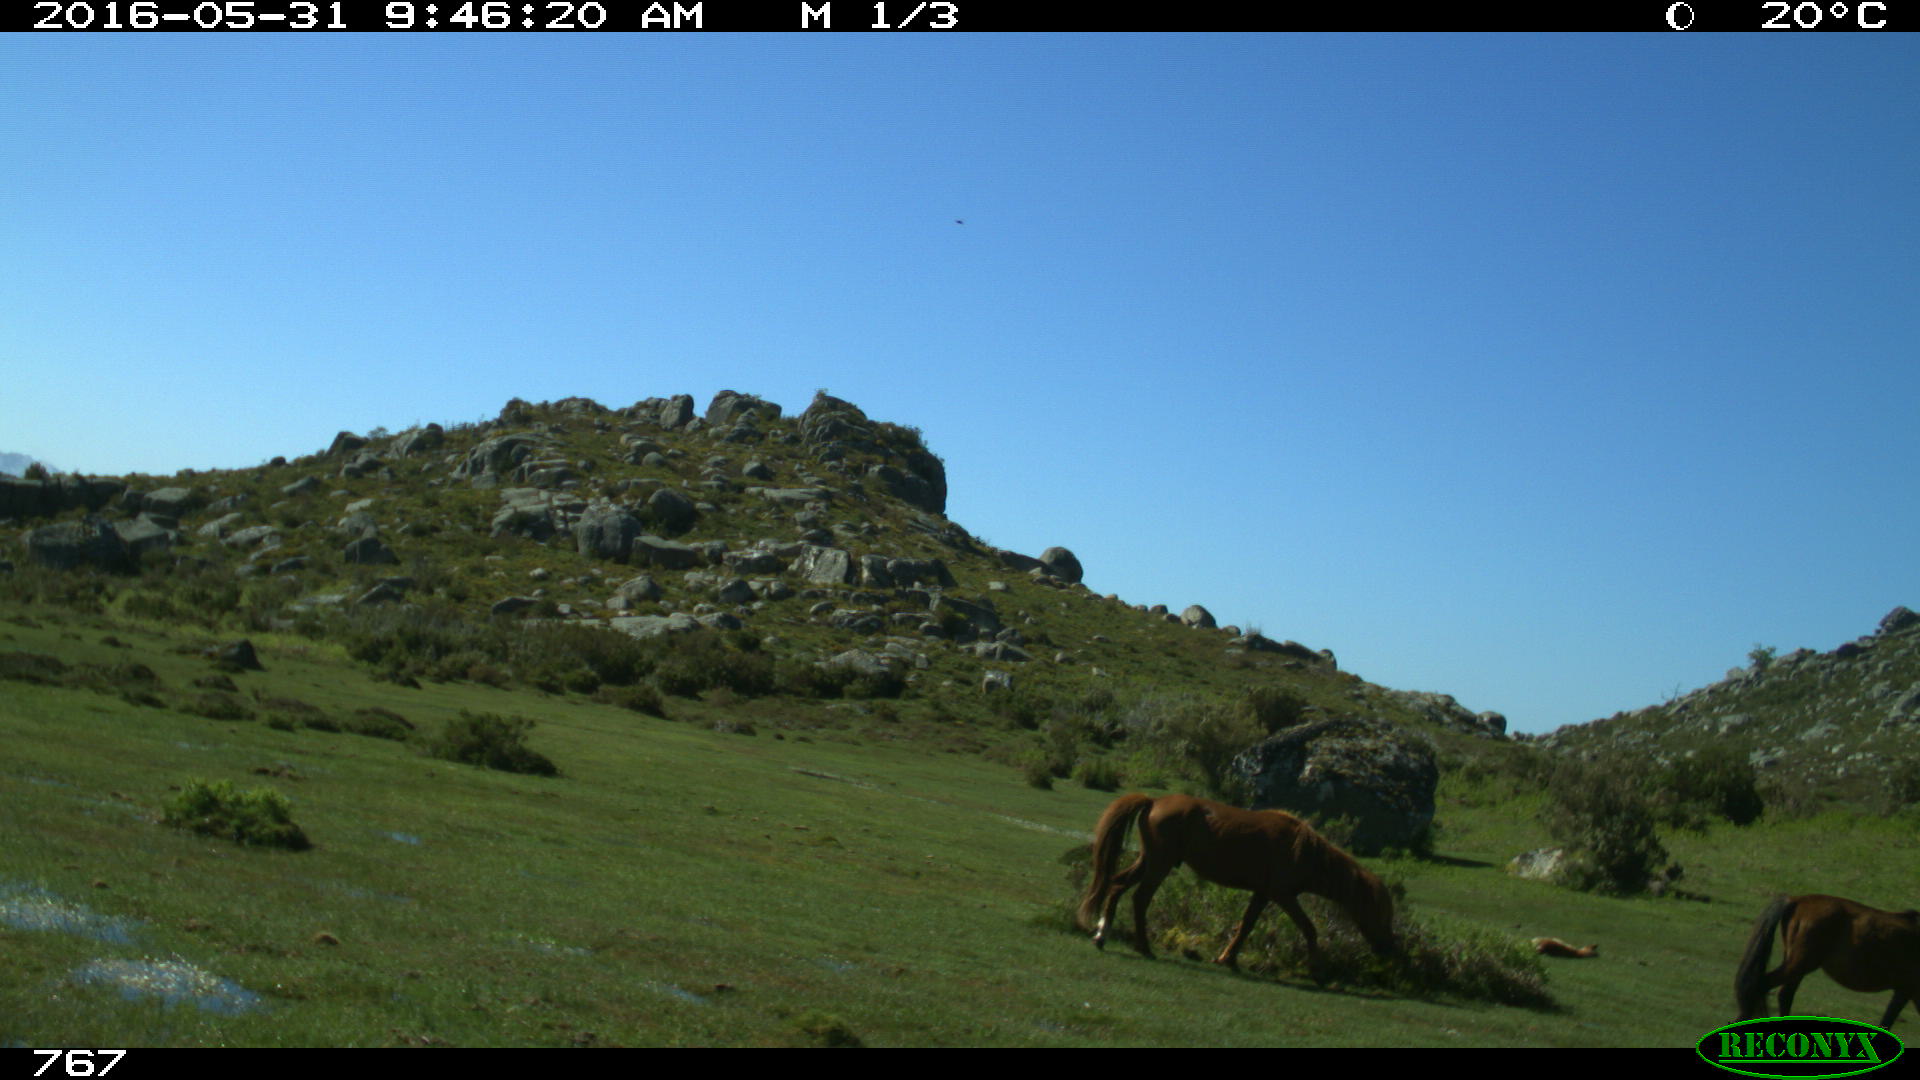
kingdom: Animalia
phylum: Chordata
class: Mammalia
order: Artiodactyla
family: Bovidae
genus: Bos
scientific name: Bos taurus
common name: Domesticated cattle
